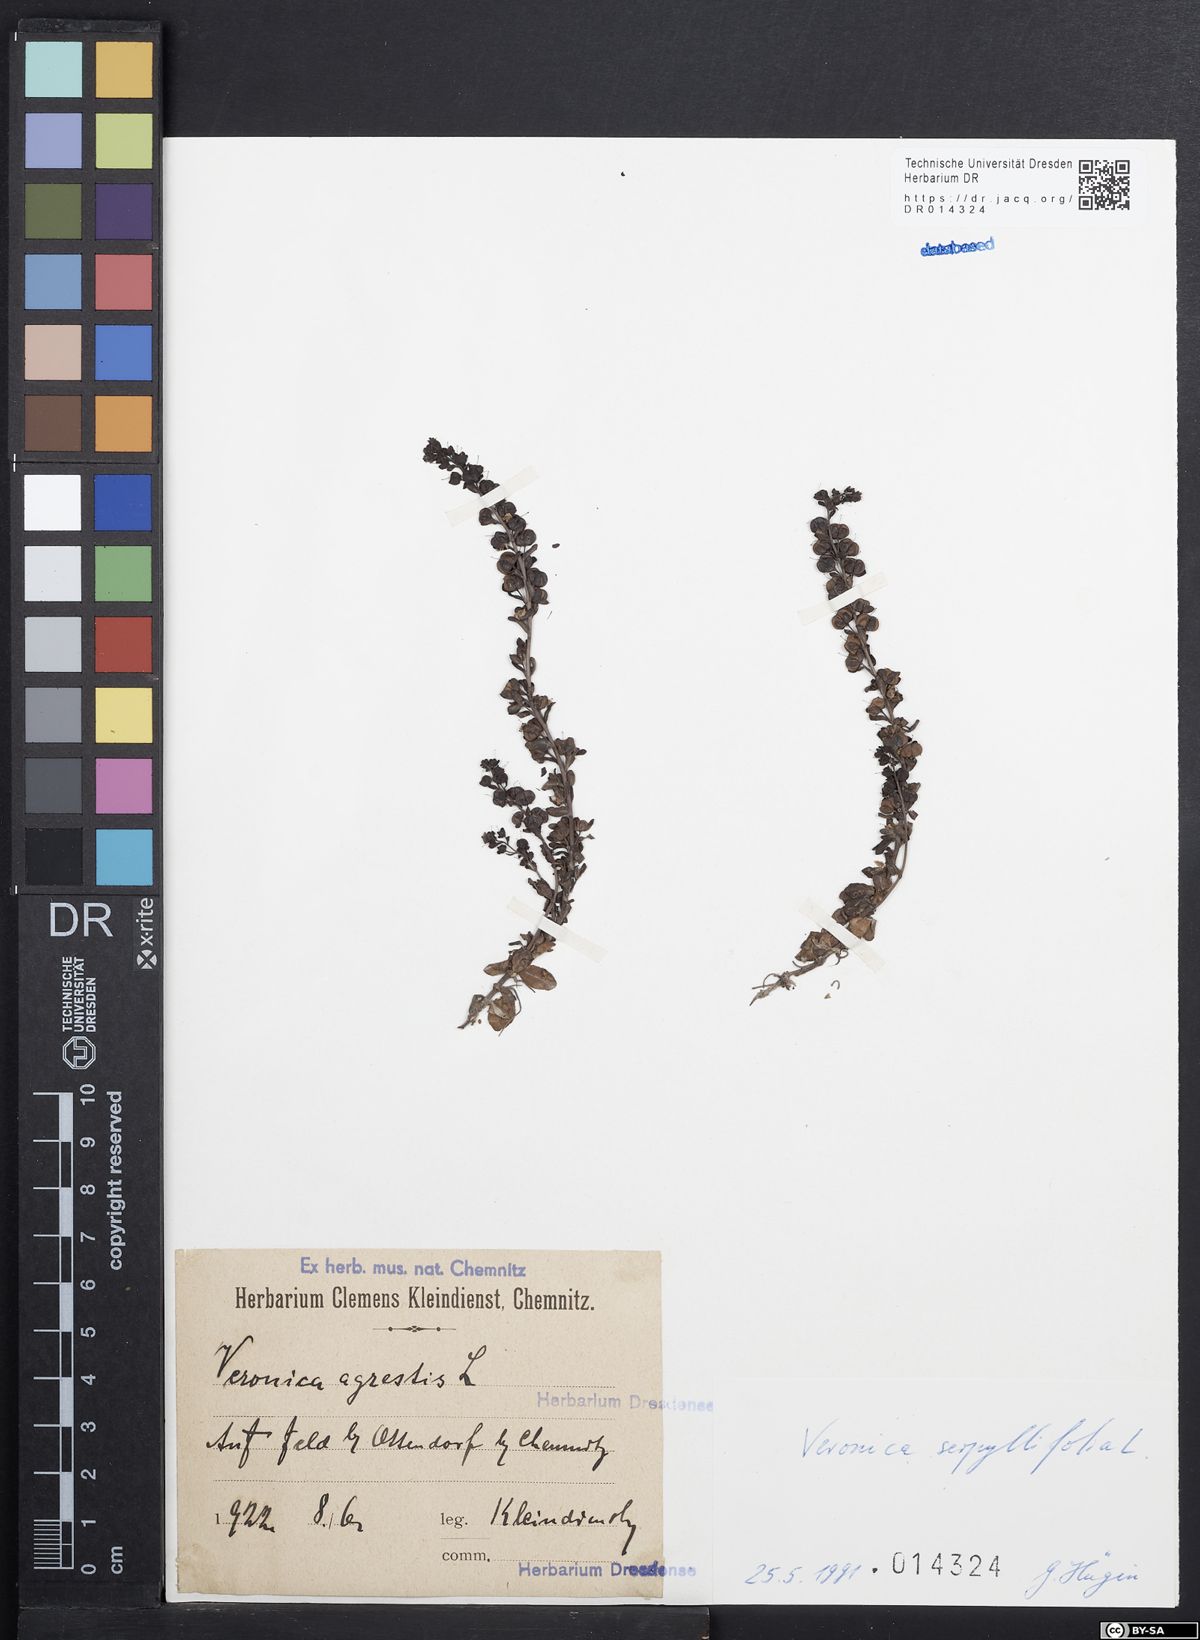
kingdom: Plantae
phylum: Tracheophyta
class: Magnoliopsida
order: Lamiales
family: Plantaginaceae
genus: Veronica
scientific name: Veronica serpyllifolia
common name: Thyme-leaved speedwell
